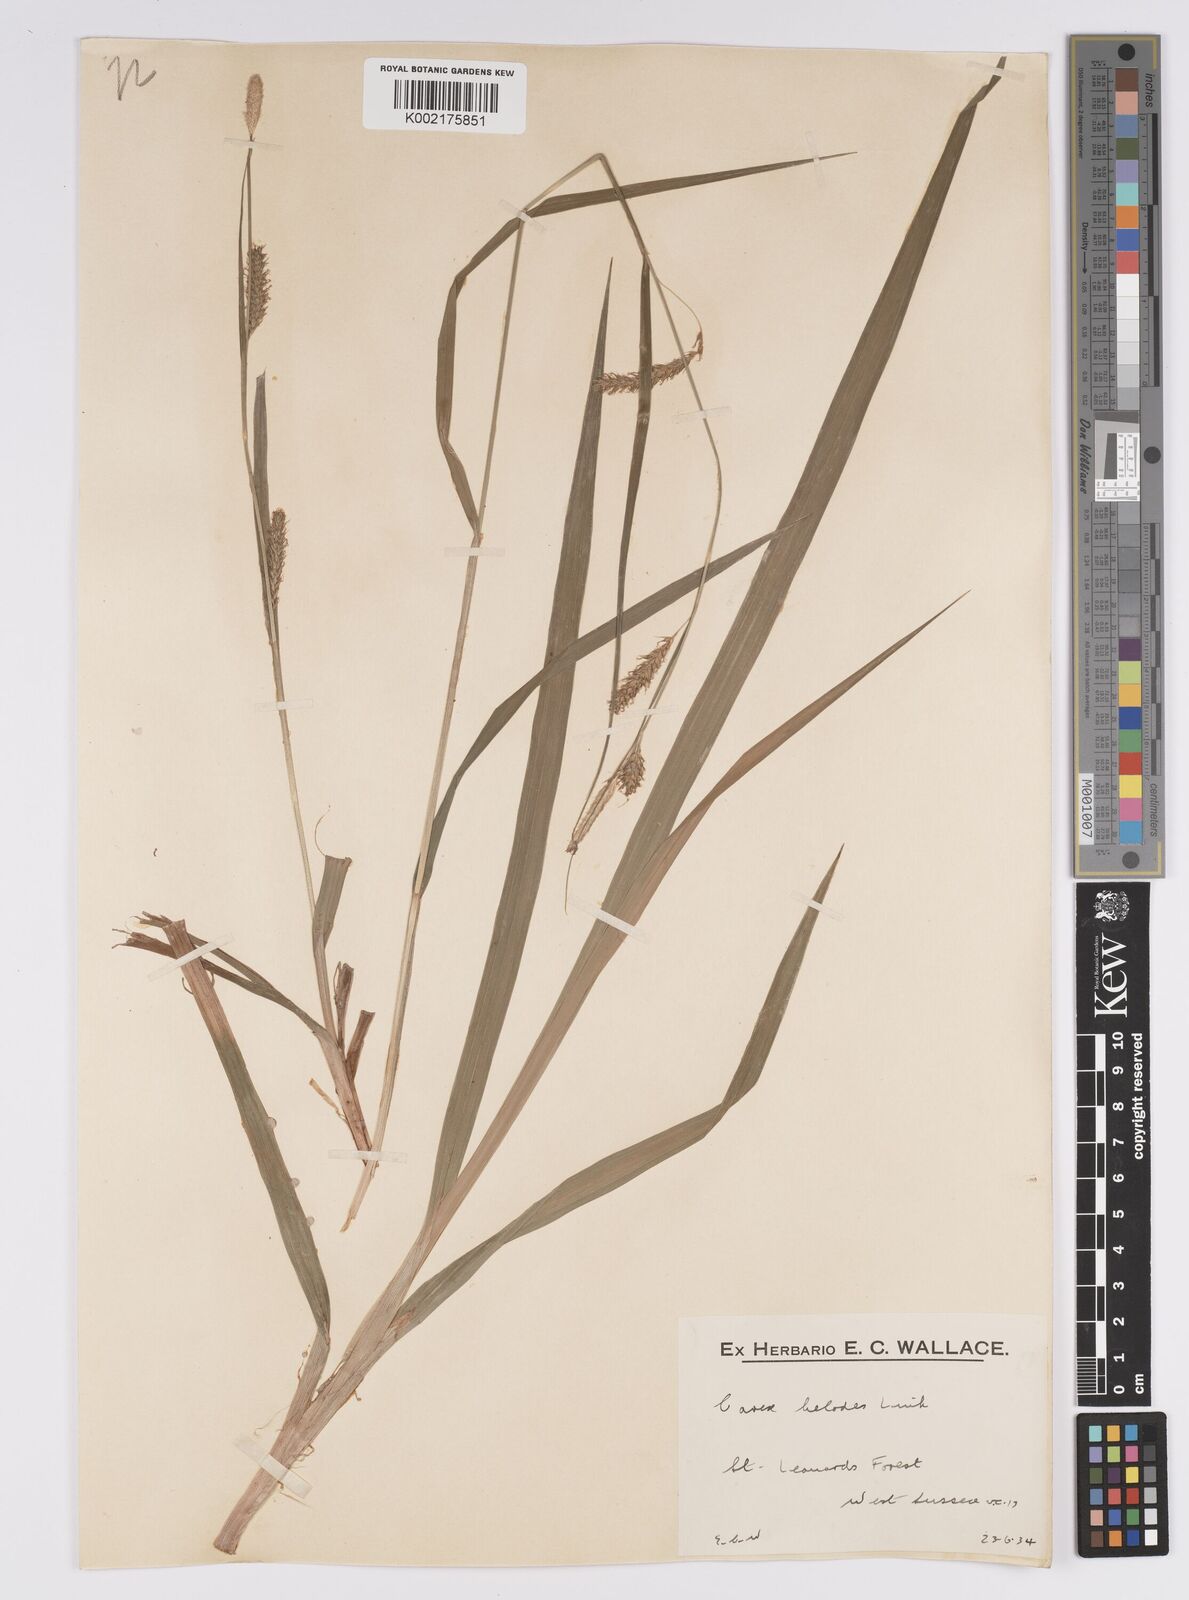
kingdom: Plantae
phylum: Tracheophyta
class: Liliopsida
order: Poales
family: Cyperaceae
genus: Carex
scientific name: Carex laevigata
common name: Smooth-stalked sedge
